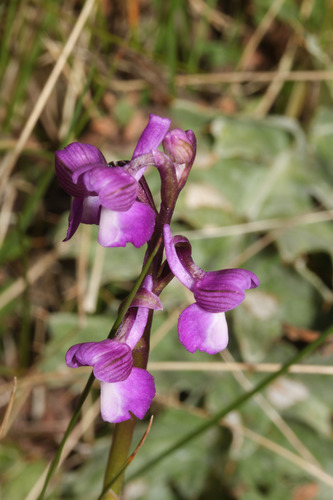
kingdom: Plantae
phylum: Tracheophyta
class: Liliopsida
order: Asparagales
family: Orchidaceae
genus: Anacamptis
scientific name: Anacamptis morio
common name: Green-winged orchid
